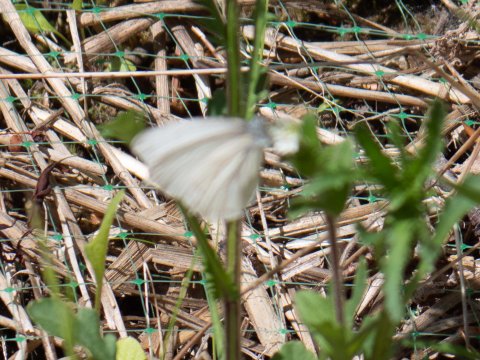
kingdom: Animalia
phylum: Arthropoda
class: Insecta
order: Lepidoptera
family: Pieridae
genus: Pieris
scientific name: Pieris virginiensis
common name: West Virginia White
